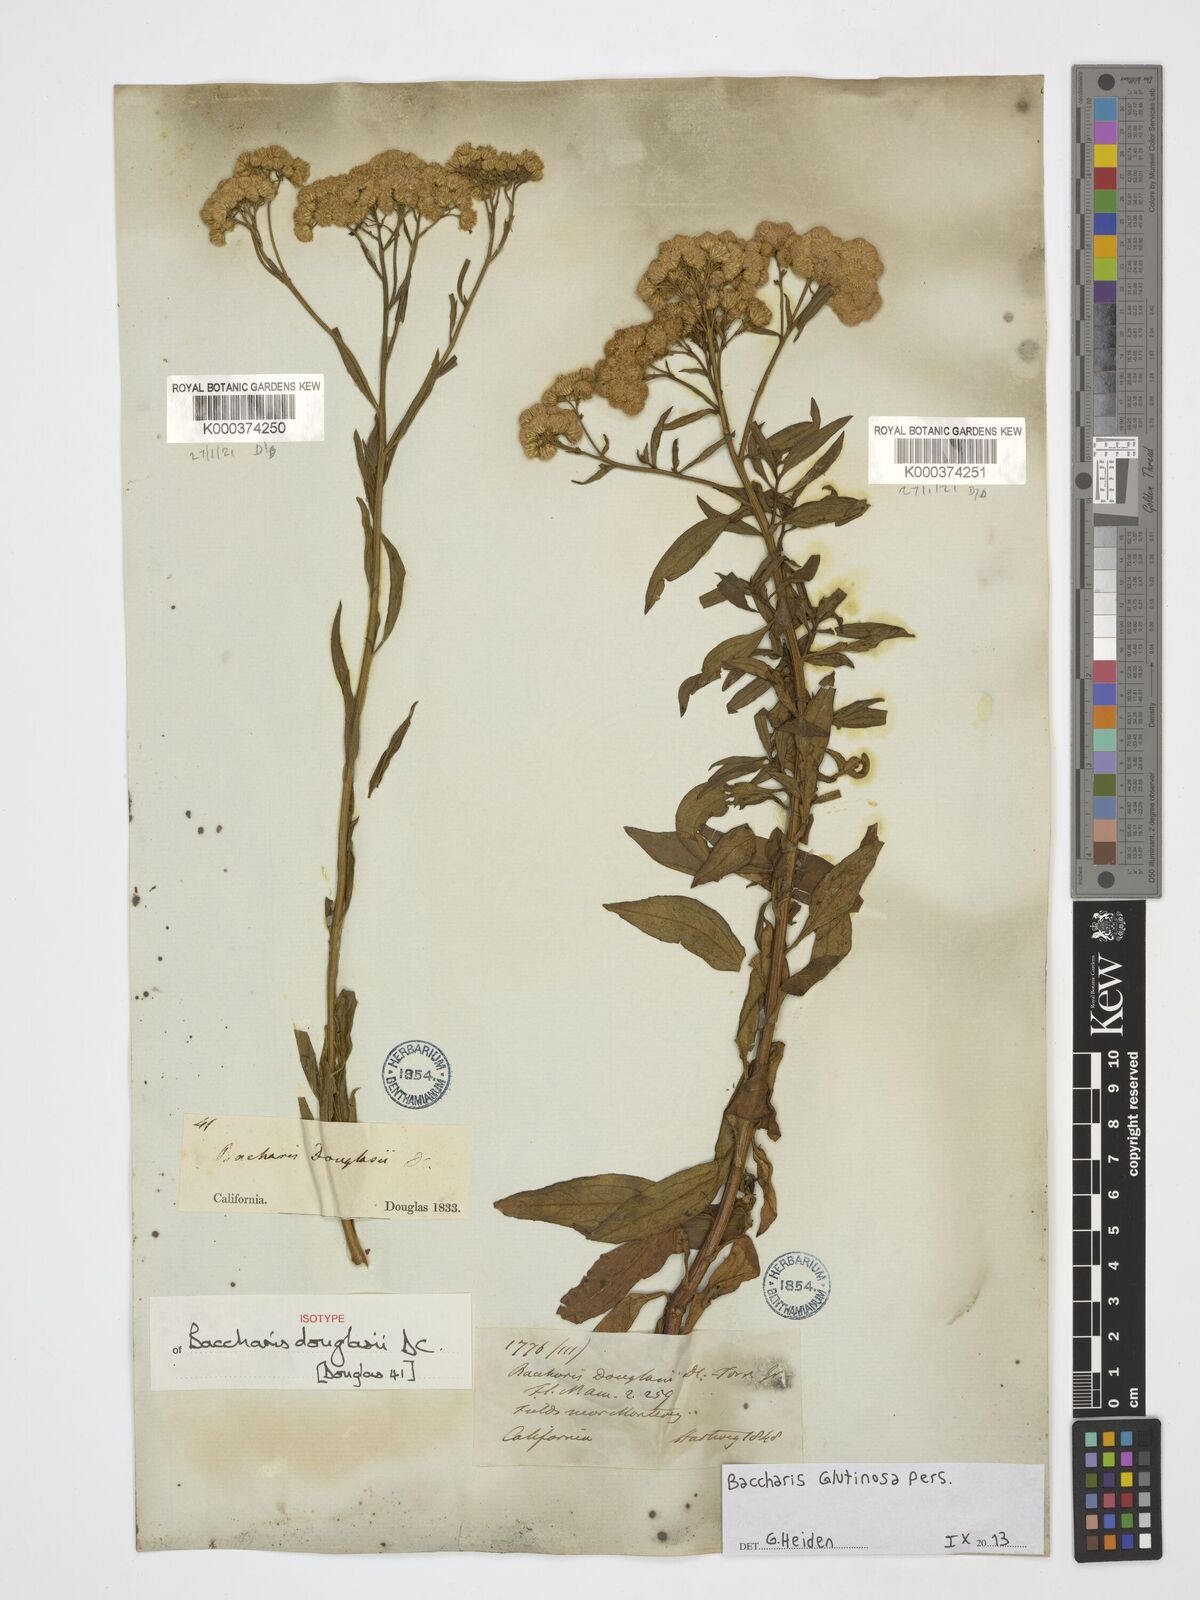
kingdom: Plantae
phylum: Tracheophyta
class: Magnoliopsida
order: Asterales
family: Asteraceae
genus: Baccharis
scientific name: Baccharis glutinosa
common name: Saltmarsh baccharis
